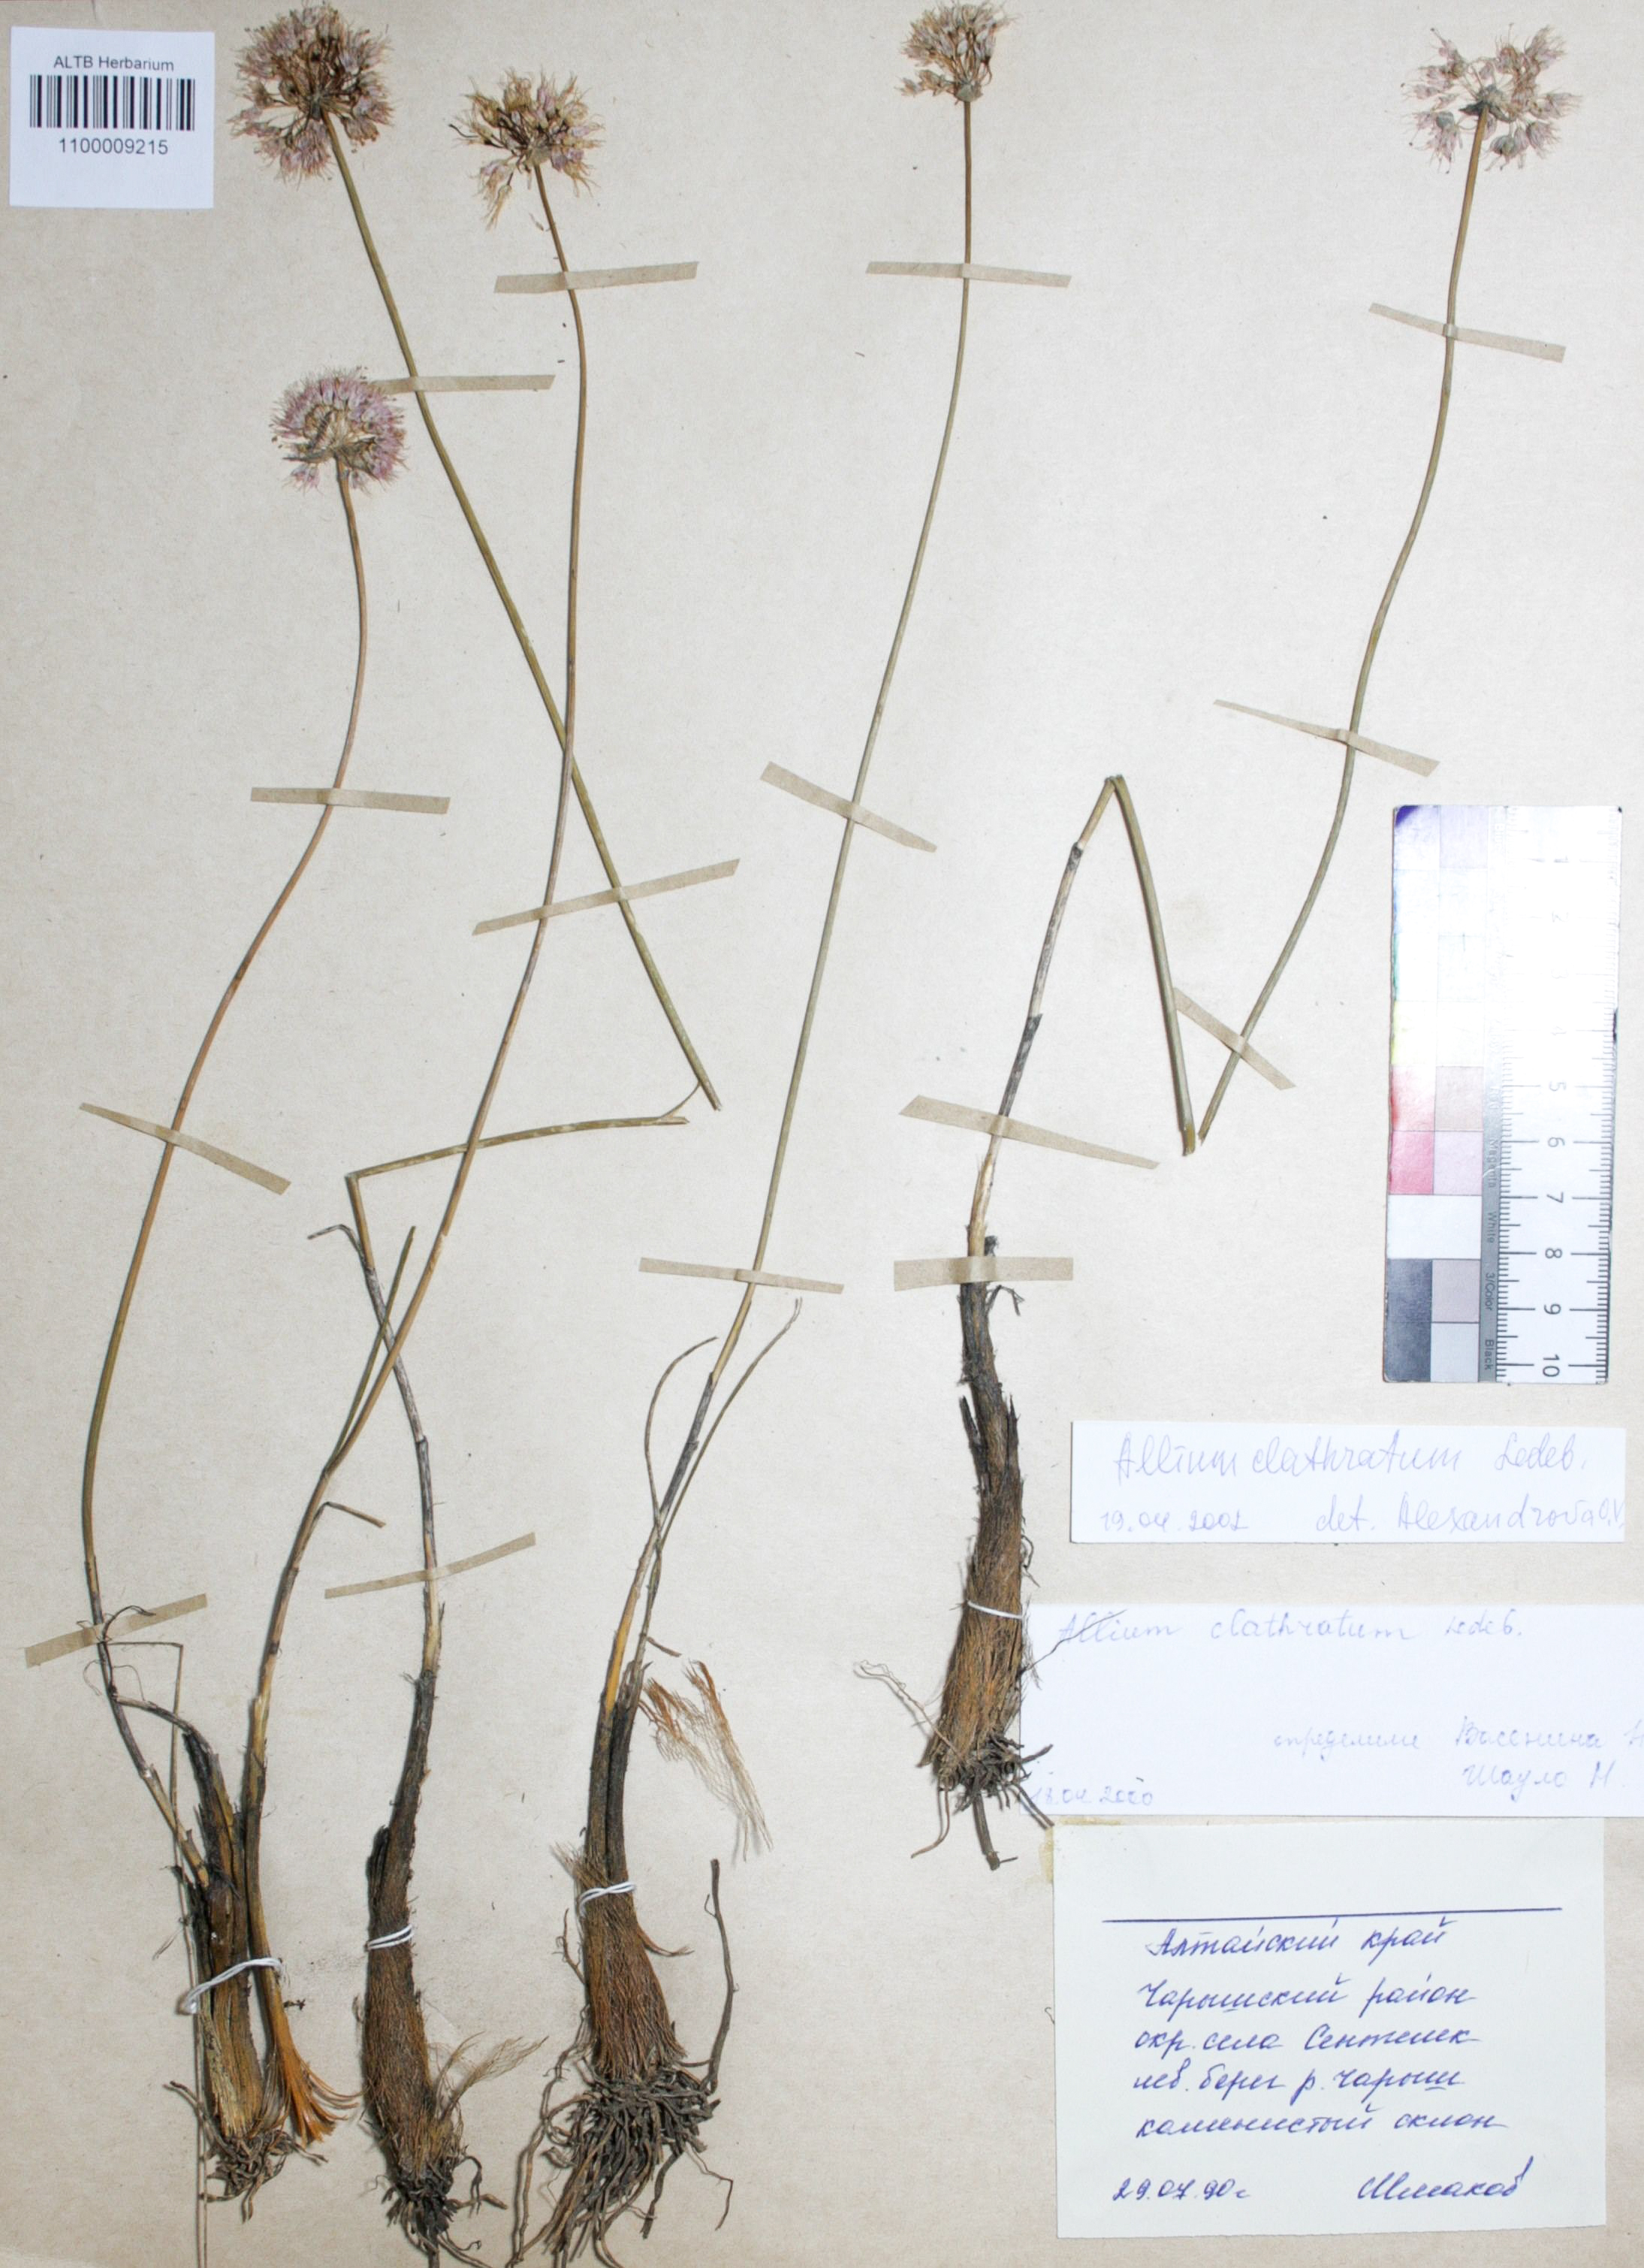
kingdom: Plantae
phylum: Tracheophyta
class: Liliopsida
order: Asparagales
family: Amaryllidaceae
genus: Allium
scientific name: Allium clathratum
